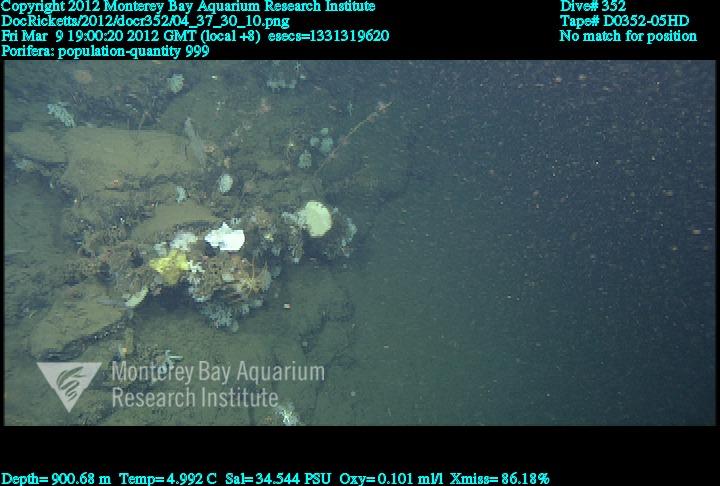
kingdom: Animalia
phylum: Porifera
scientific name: Porifera
